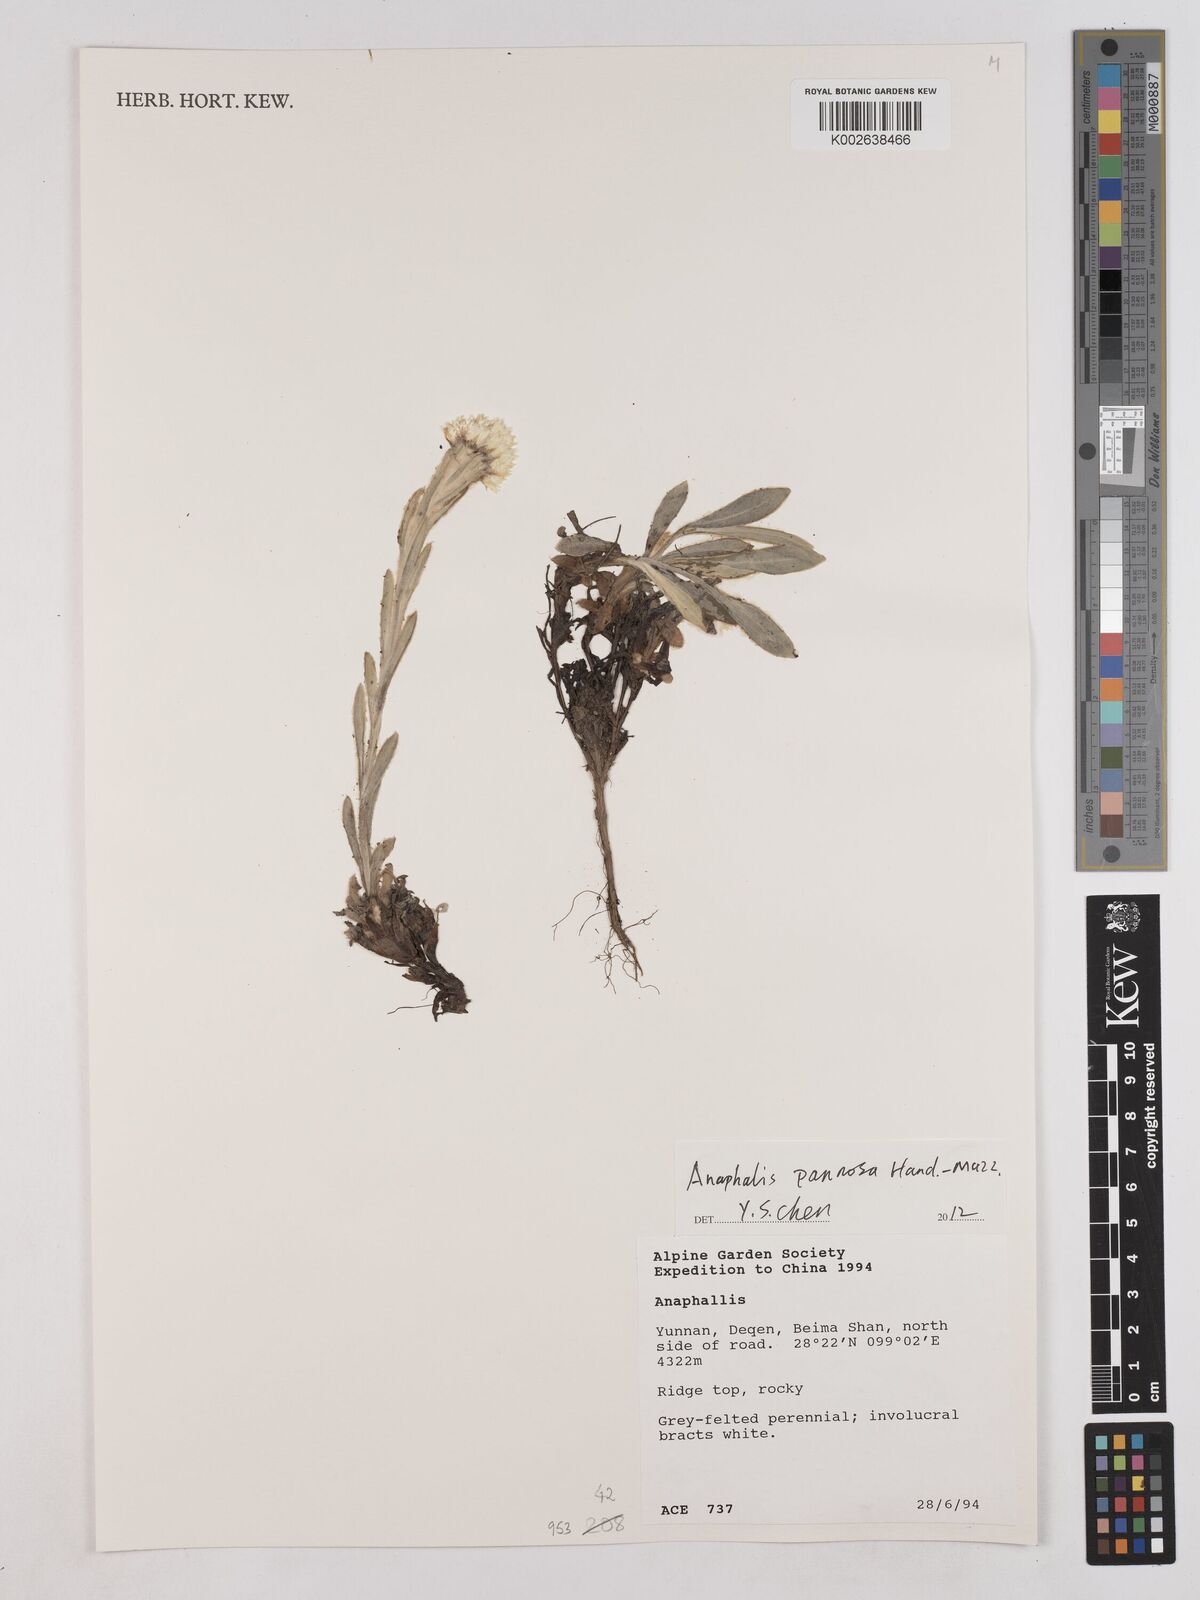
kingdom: Plantae
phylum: Tracheophyta
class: Magnoliopsida
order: Asterales
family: Asteraceae
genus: Anaphalis
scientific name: Anaphalis pannosa
